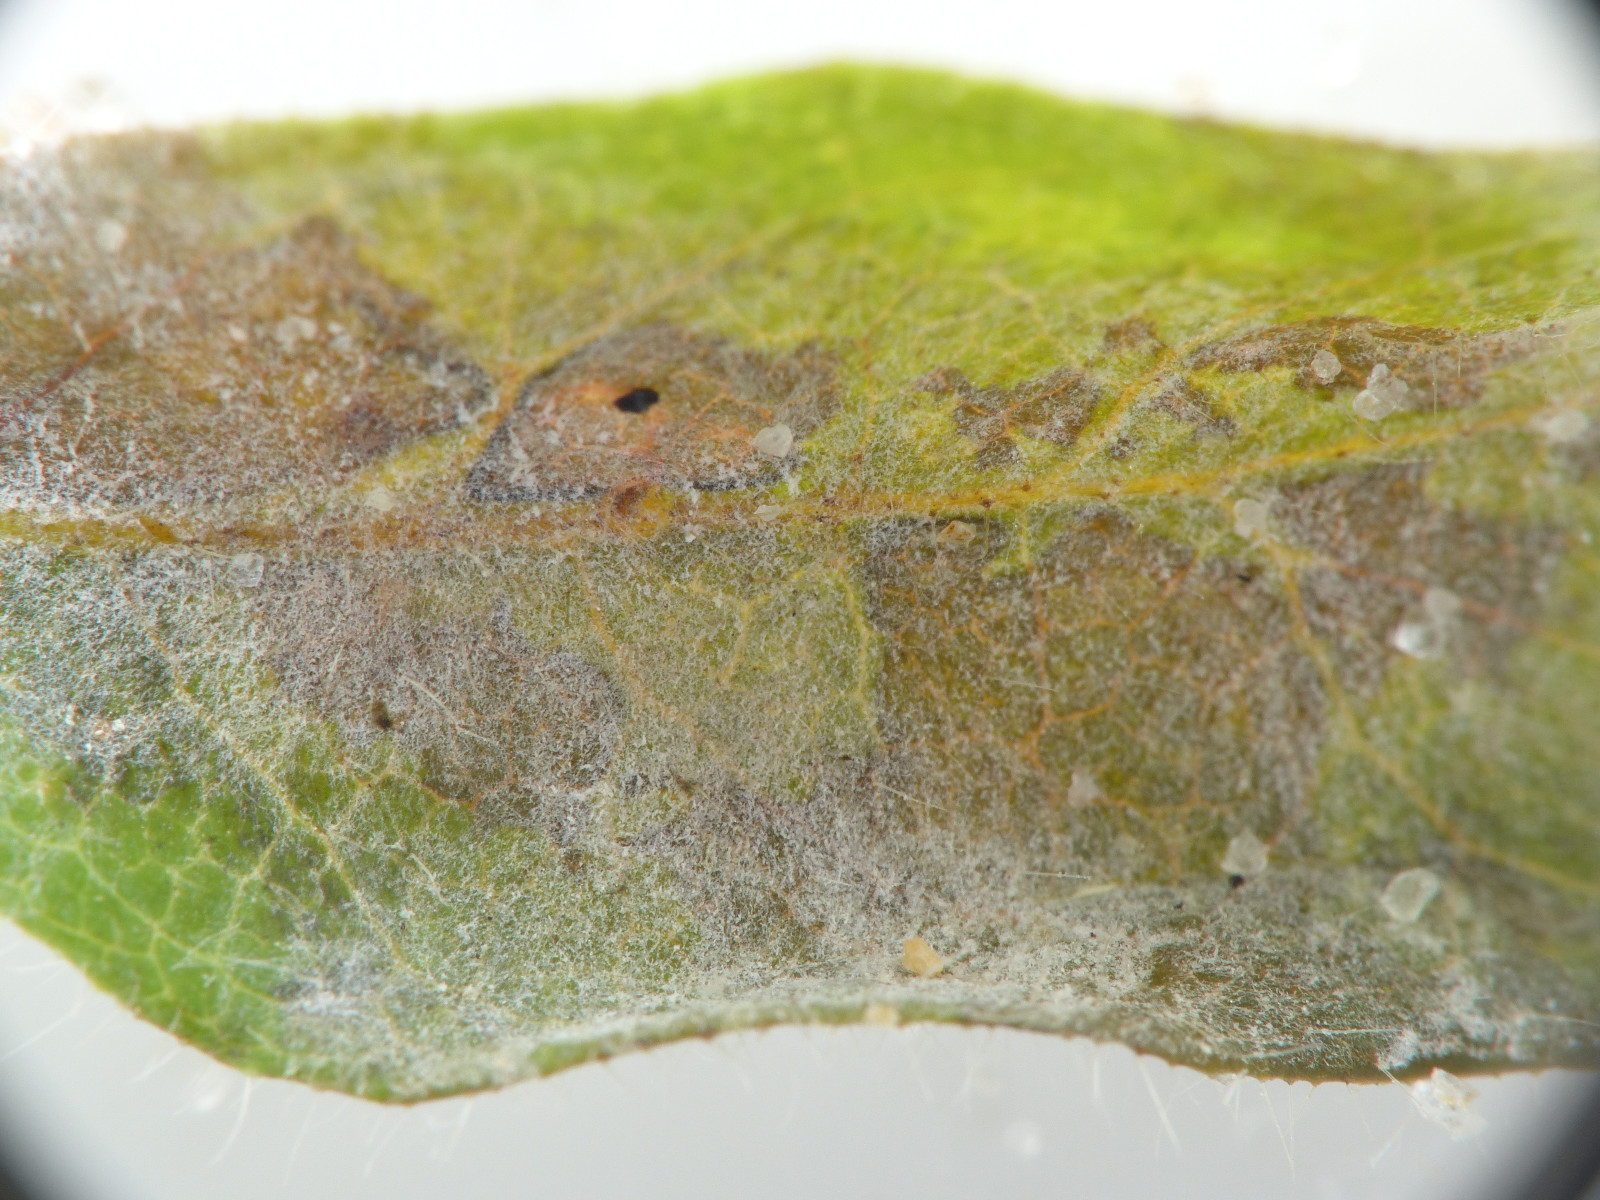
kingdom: Fungi
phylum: Ascomycota
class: Leotiomycetes
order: Helotiales
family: Erysiphaceae
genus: Erysiphe
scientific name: Erysiphe lonicerae
